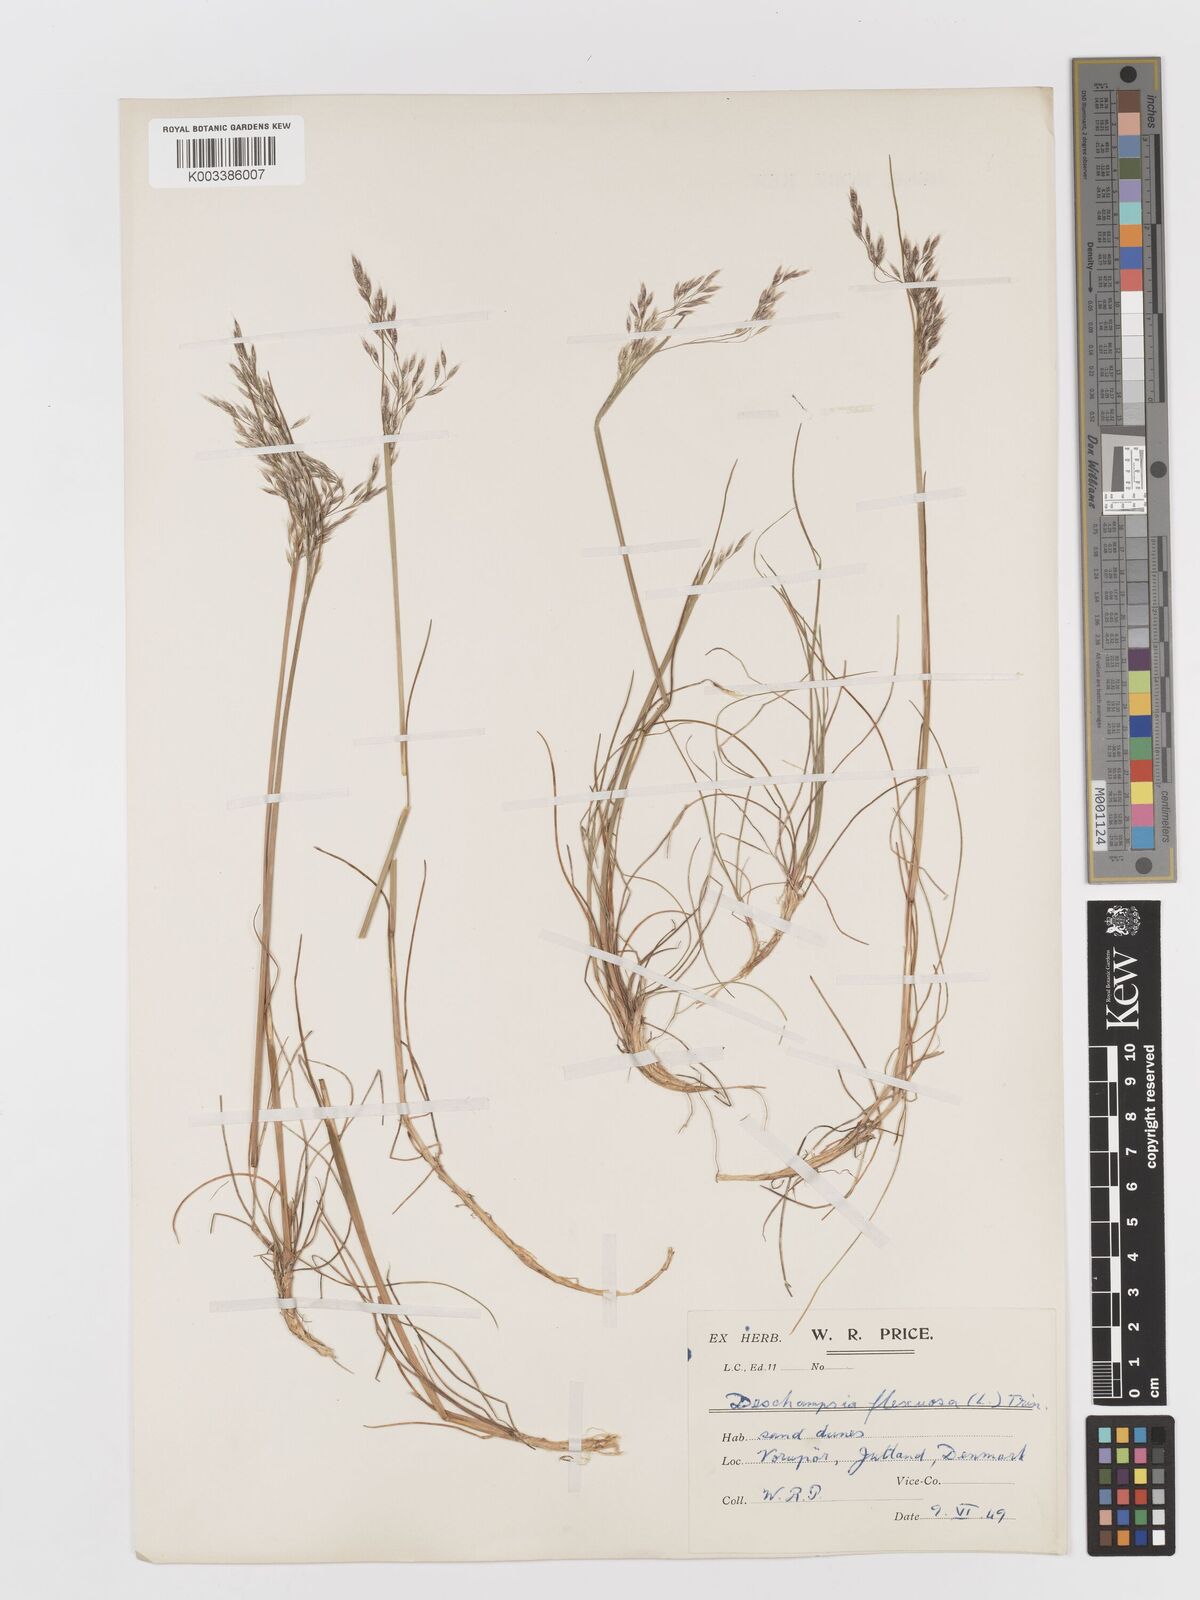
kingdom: Plantae
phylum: Tracheophyta
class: Liliopsida
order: Poales
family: Poaceae
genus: Avenella
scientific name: Avenella flexuosa
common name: Wavy hairgrass
